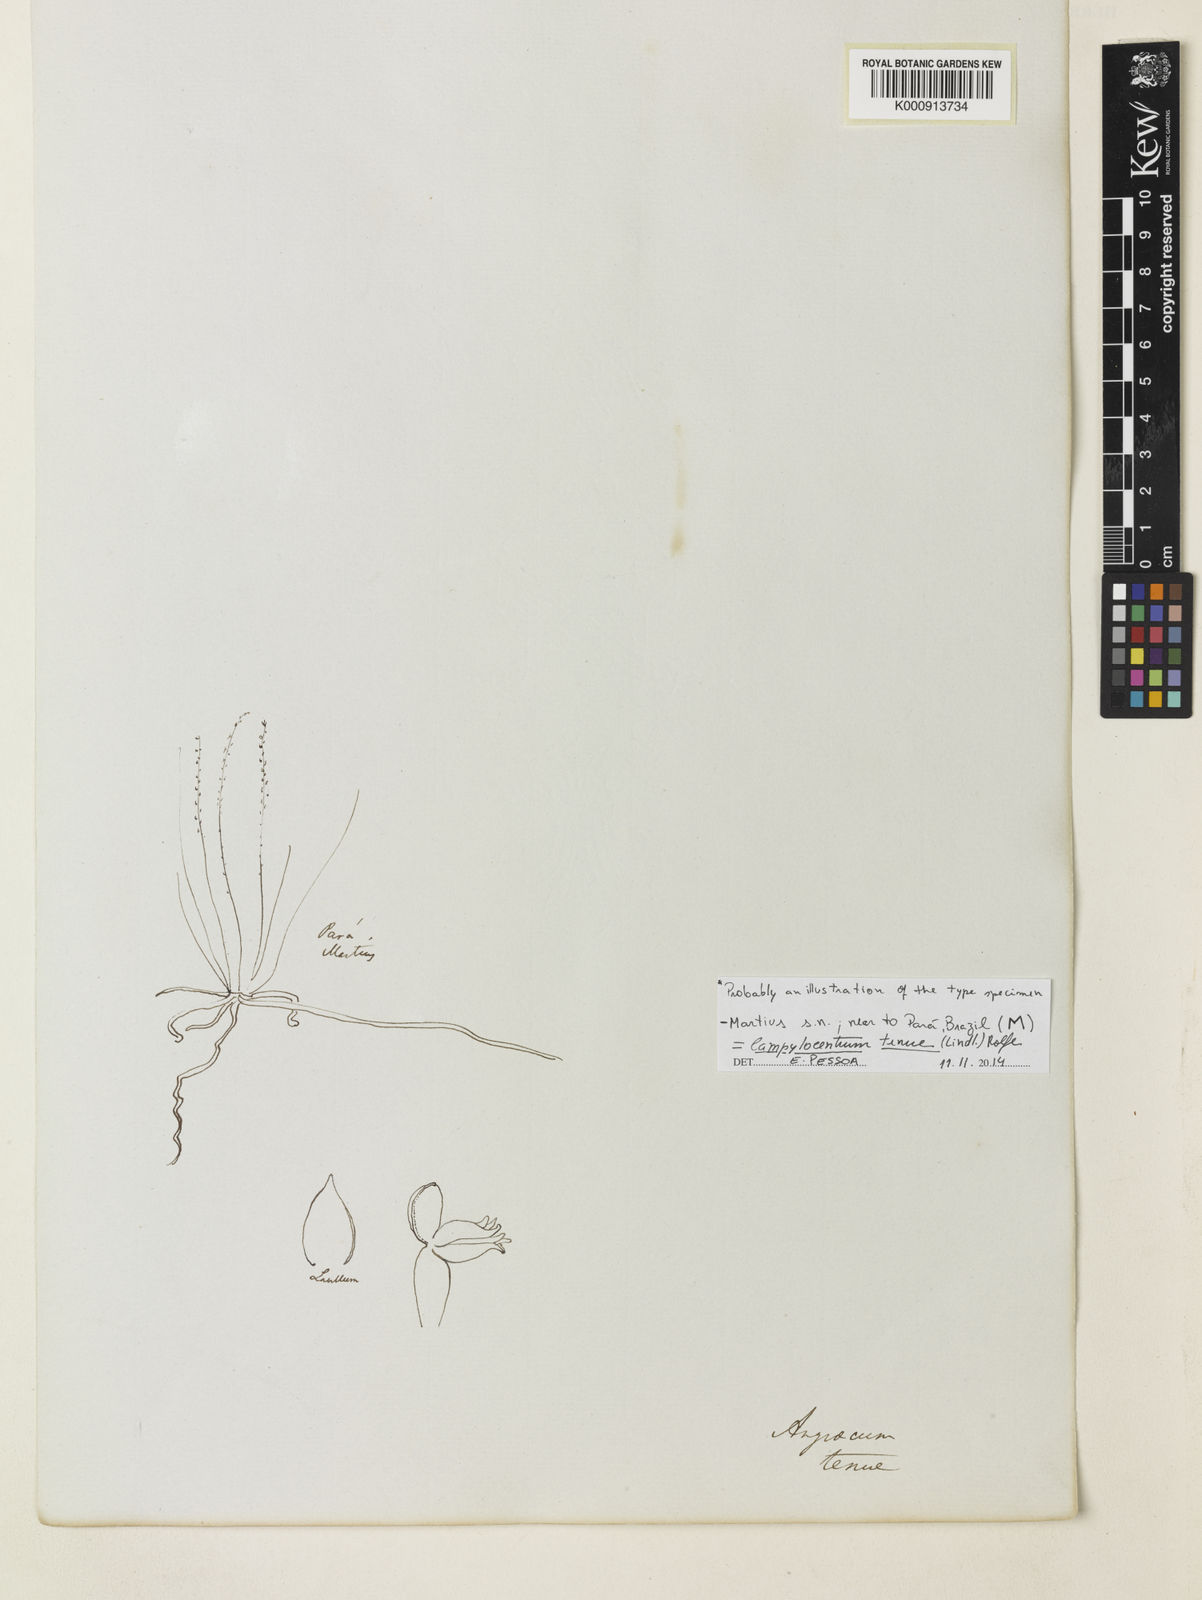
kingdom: Plantae
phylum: Tracheophyta
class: Liliopsida
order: Asparagales
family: Orchidaceae
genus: Campylocentrum
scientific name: Campylocentrum tenue
